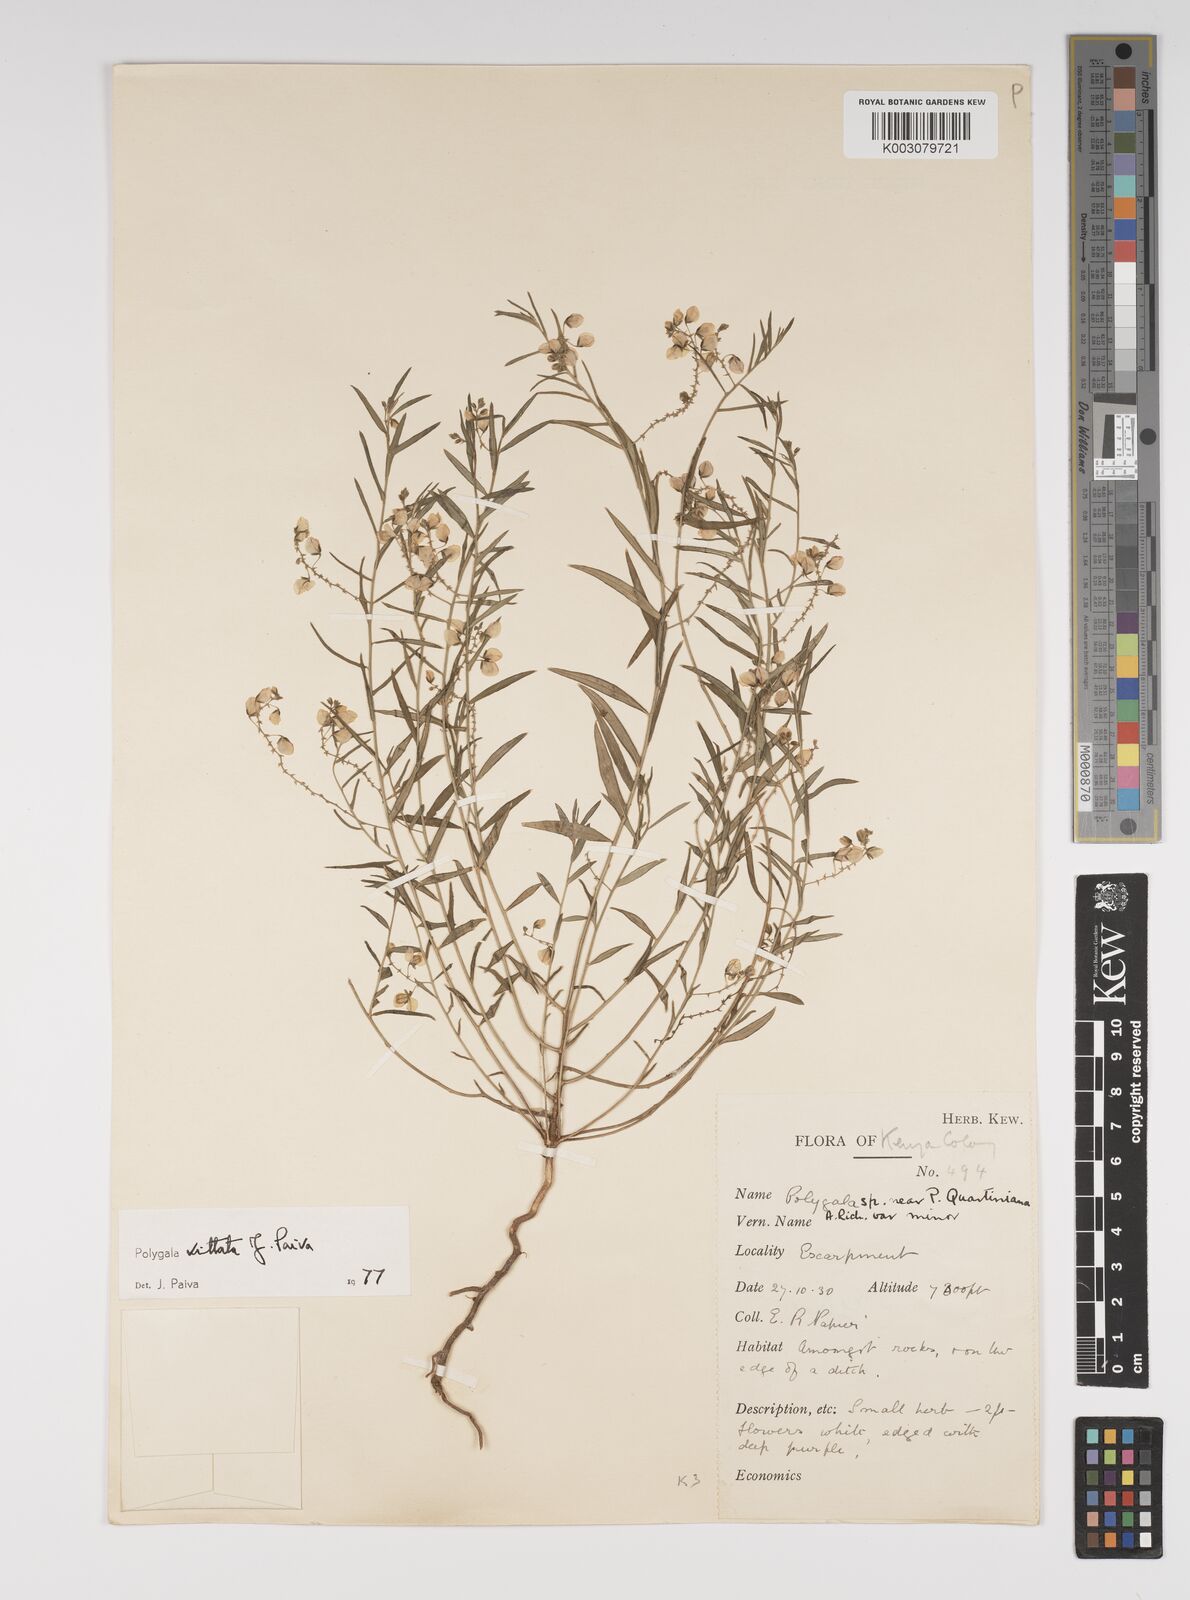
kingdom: Plantae
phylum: Tracheophyta
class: Magnoliopsida
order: Fabales
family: Polygalaceae
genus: Polygala
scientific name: Polygala vittata
